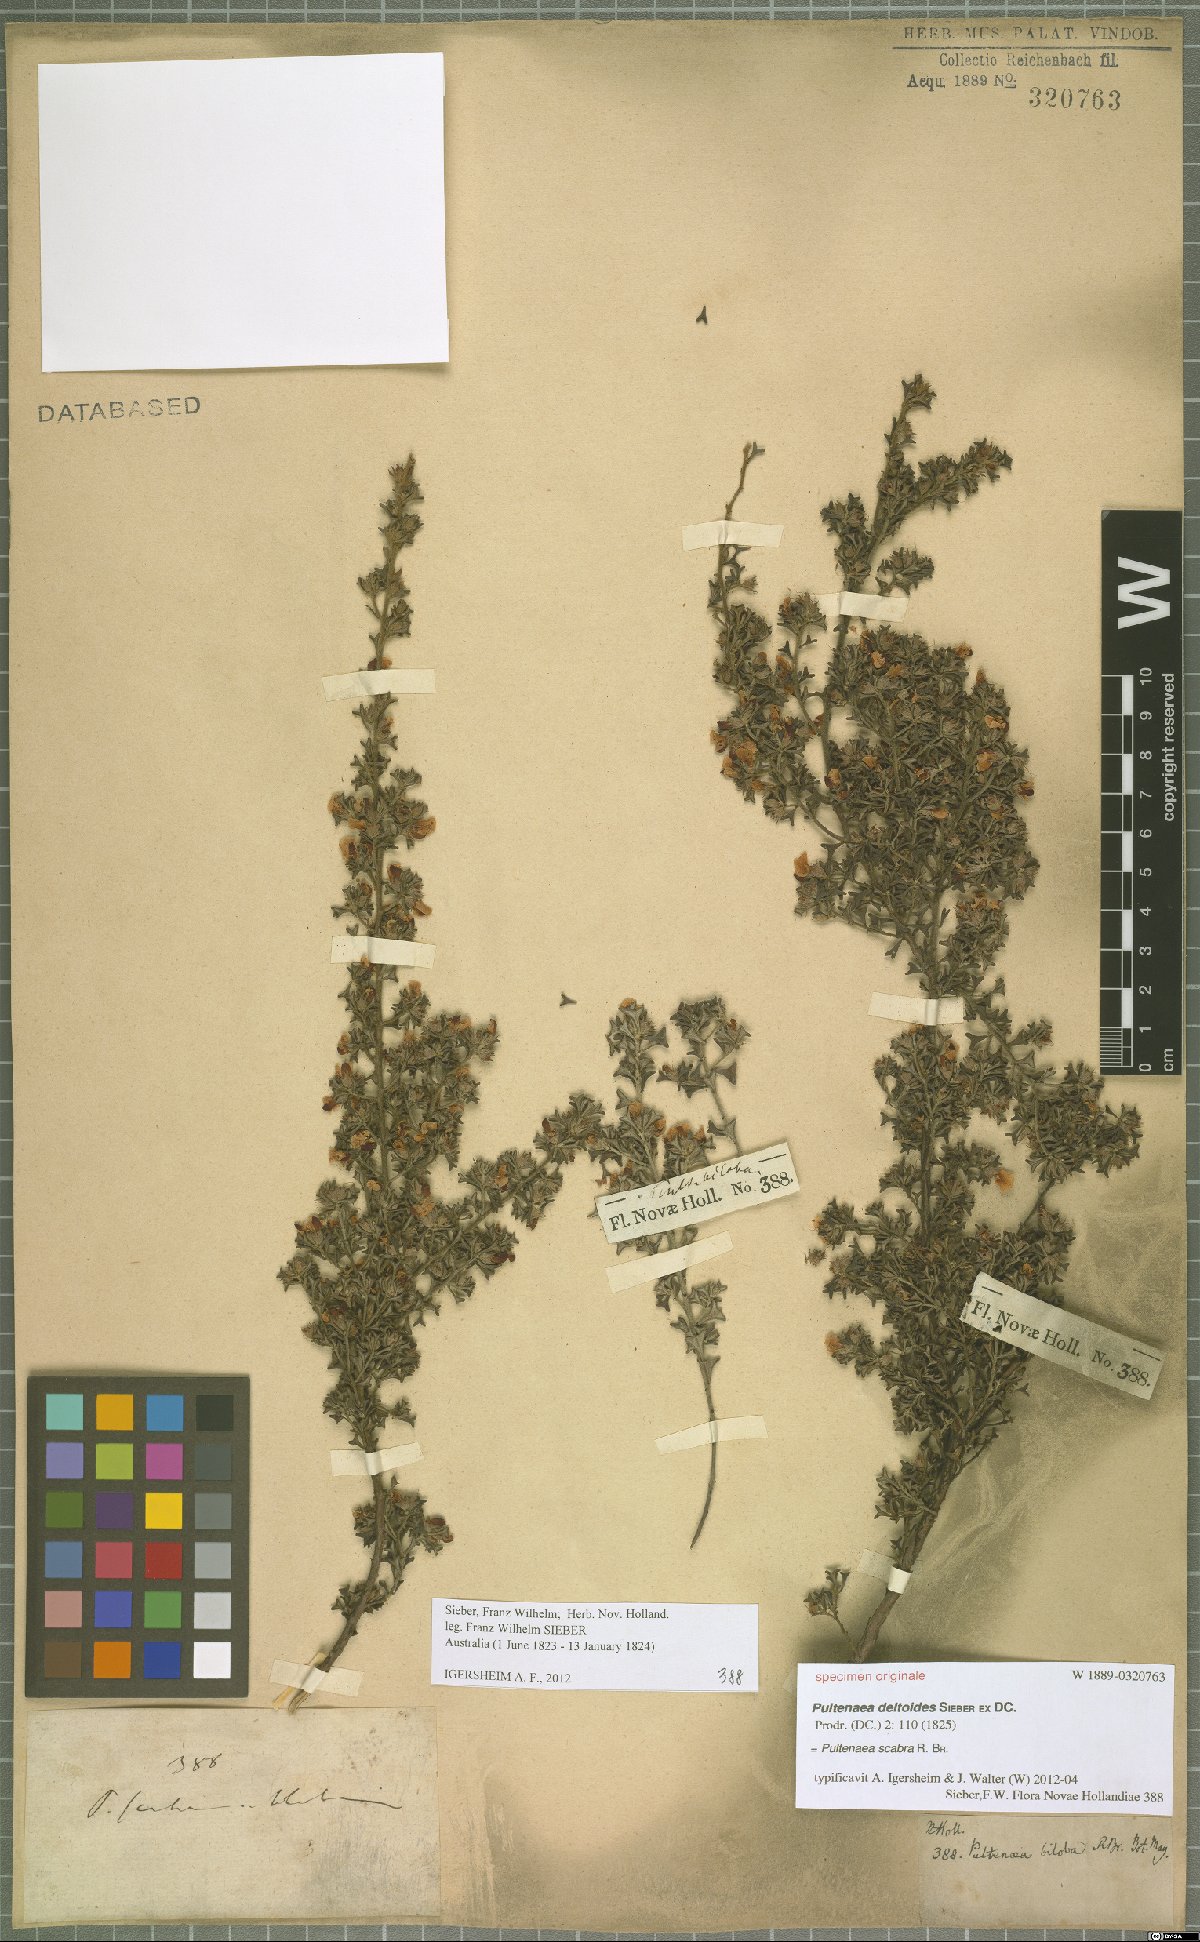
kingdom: Plantae
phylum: Tracheophyta
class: Magnoliopsida
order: Fabales
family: Fabaceae
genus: Pultenaea
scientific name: Pultenaea scabra
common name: Rough bush-pea
